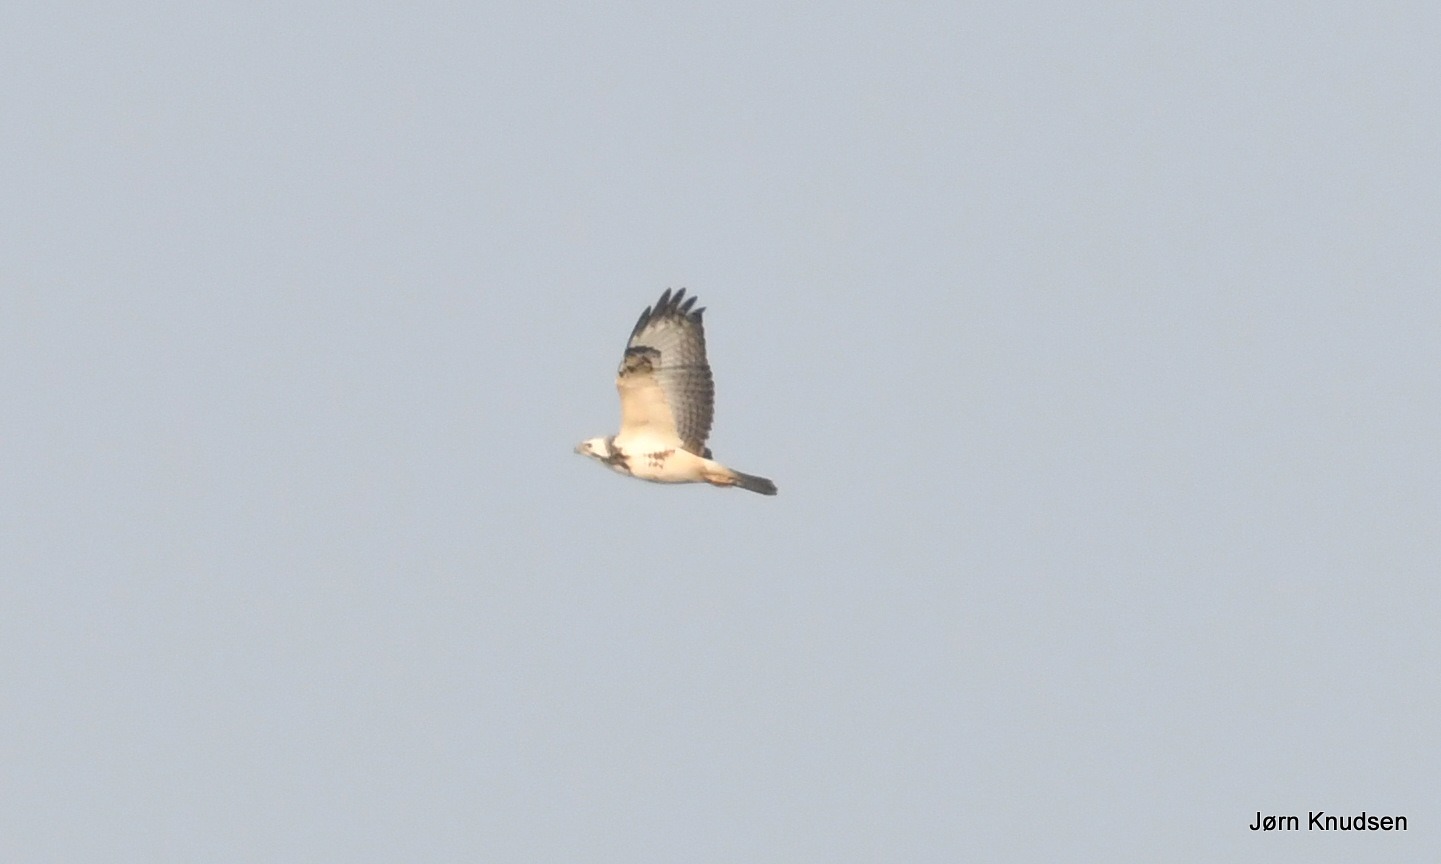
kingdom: Animalia
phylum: Chordata
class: Aves
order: Accipitriformes
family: Accipitridae
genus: Buteo
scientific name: Buteo buteo
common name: Musvåge
